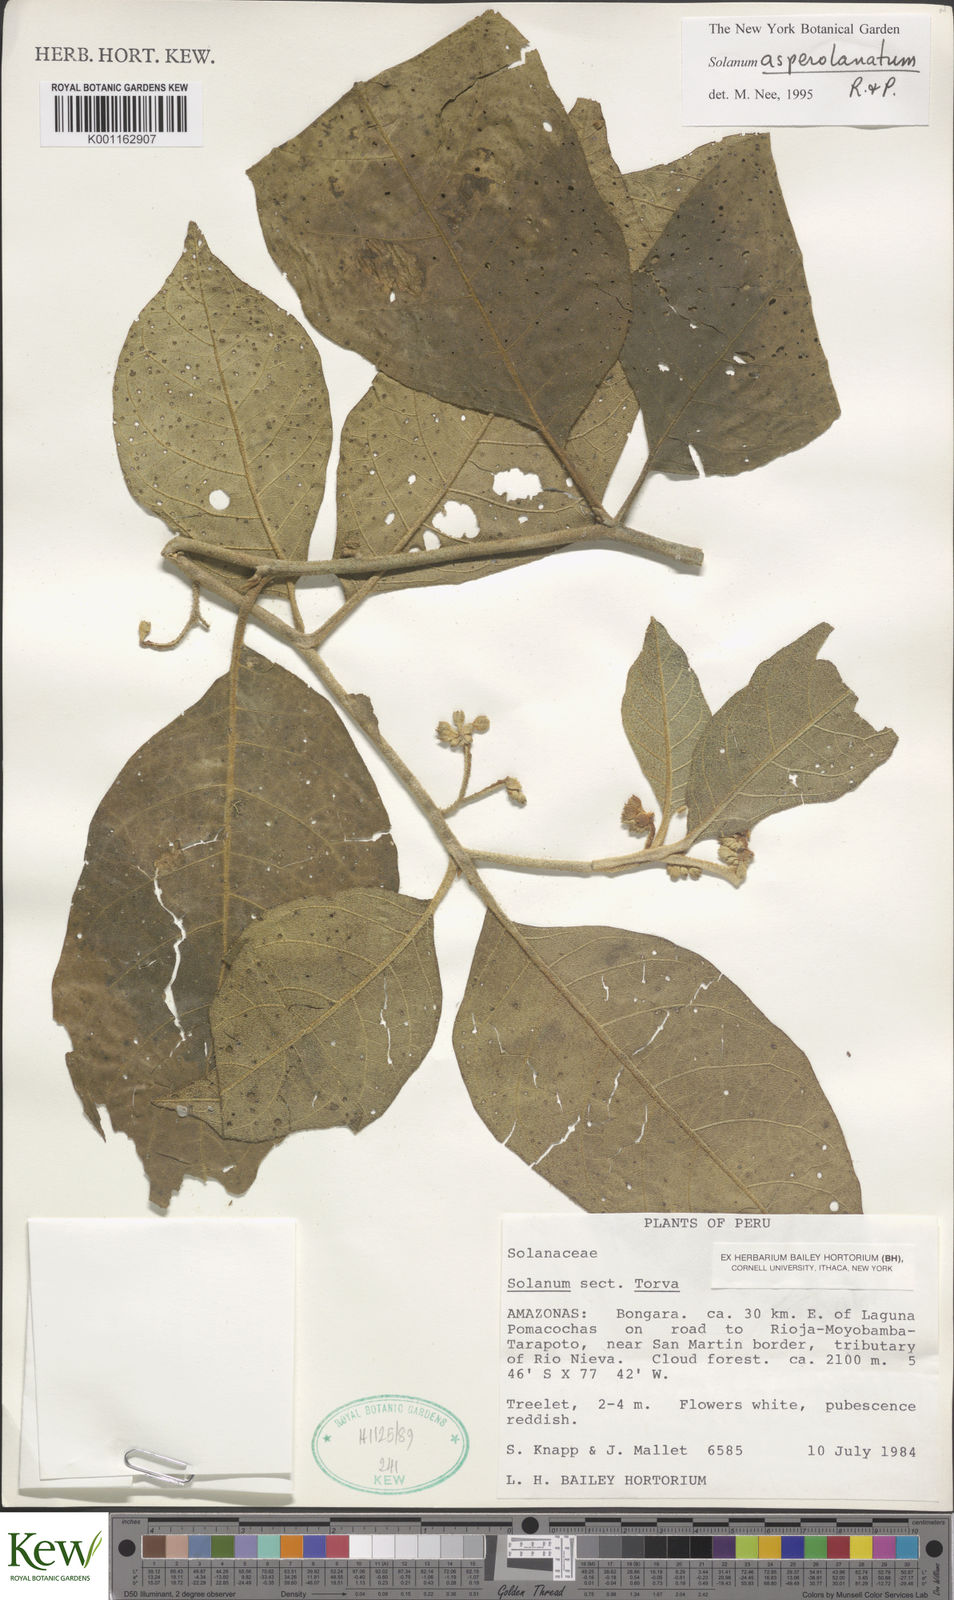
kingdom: Plantae
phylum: Tracheophyta
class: Magnoliopsida
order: Solanales
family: Solanaceae
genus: Solanum
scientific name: Solanum asperolanatum
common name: Devil's-fig
